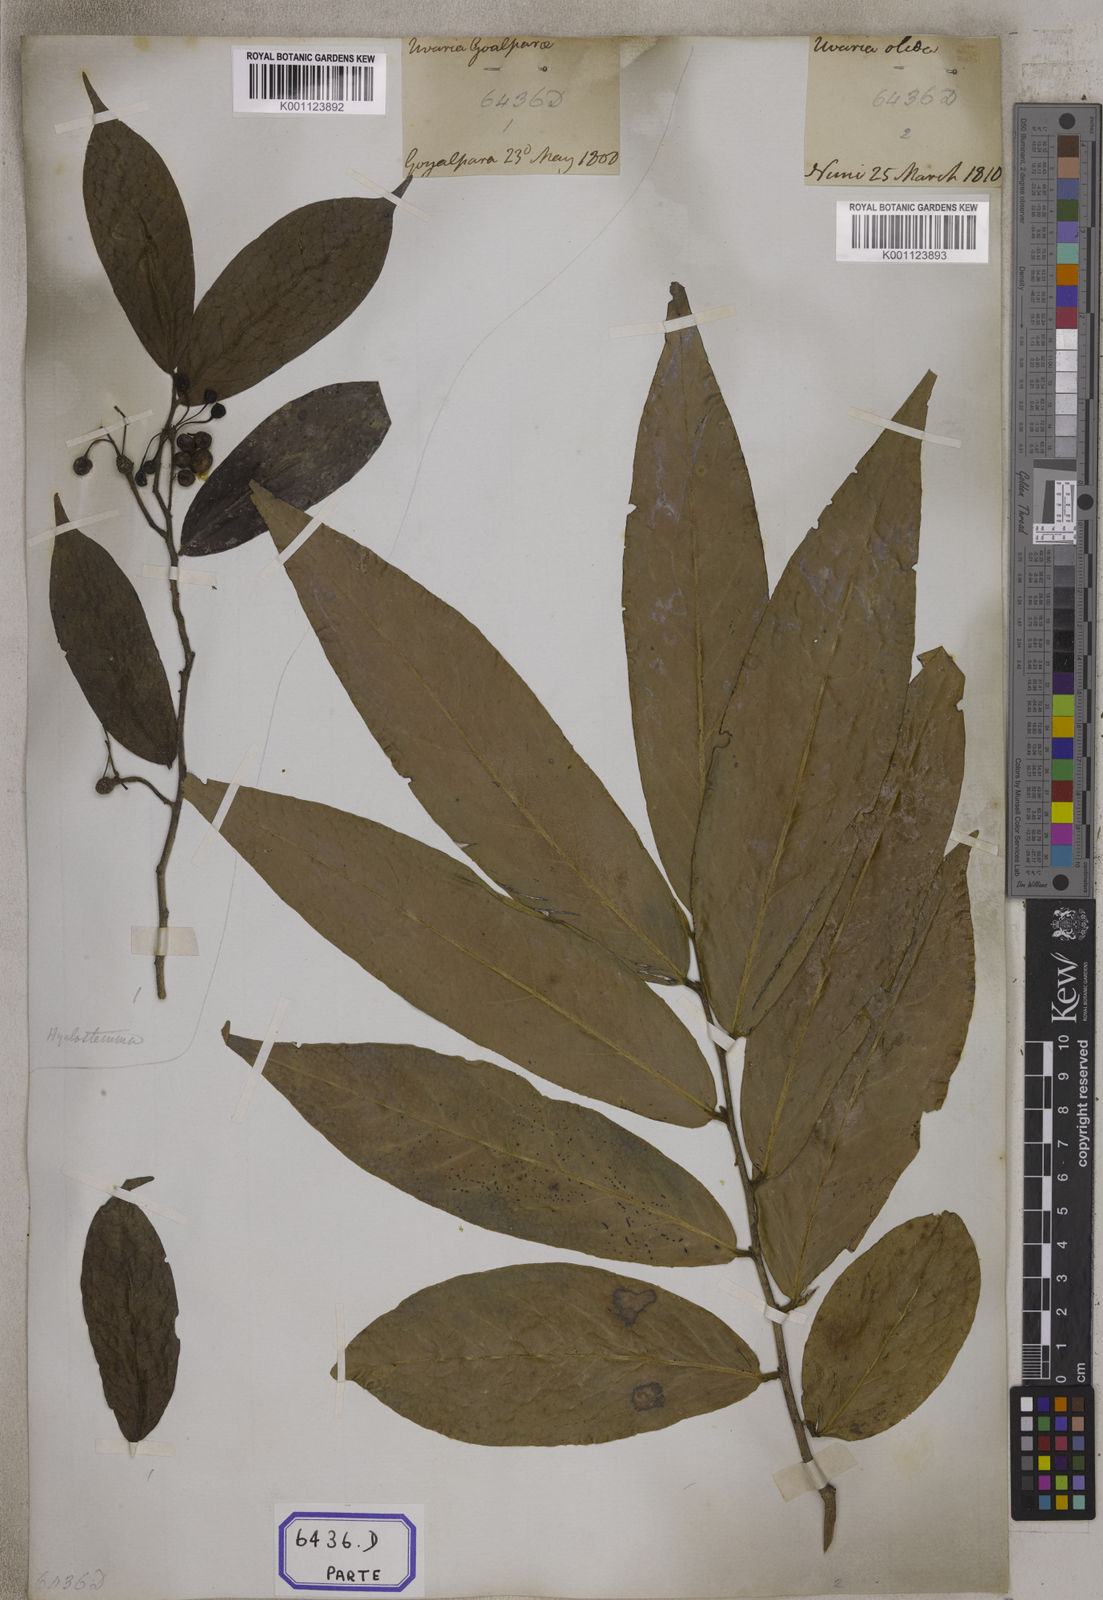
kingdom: Plantae
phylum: Tracheophyta
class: Magnoliopsida
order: Magnoliales
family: Annonaceae
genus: Hubera
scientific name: Hubera cerasoides
